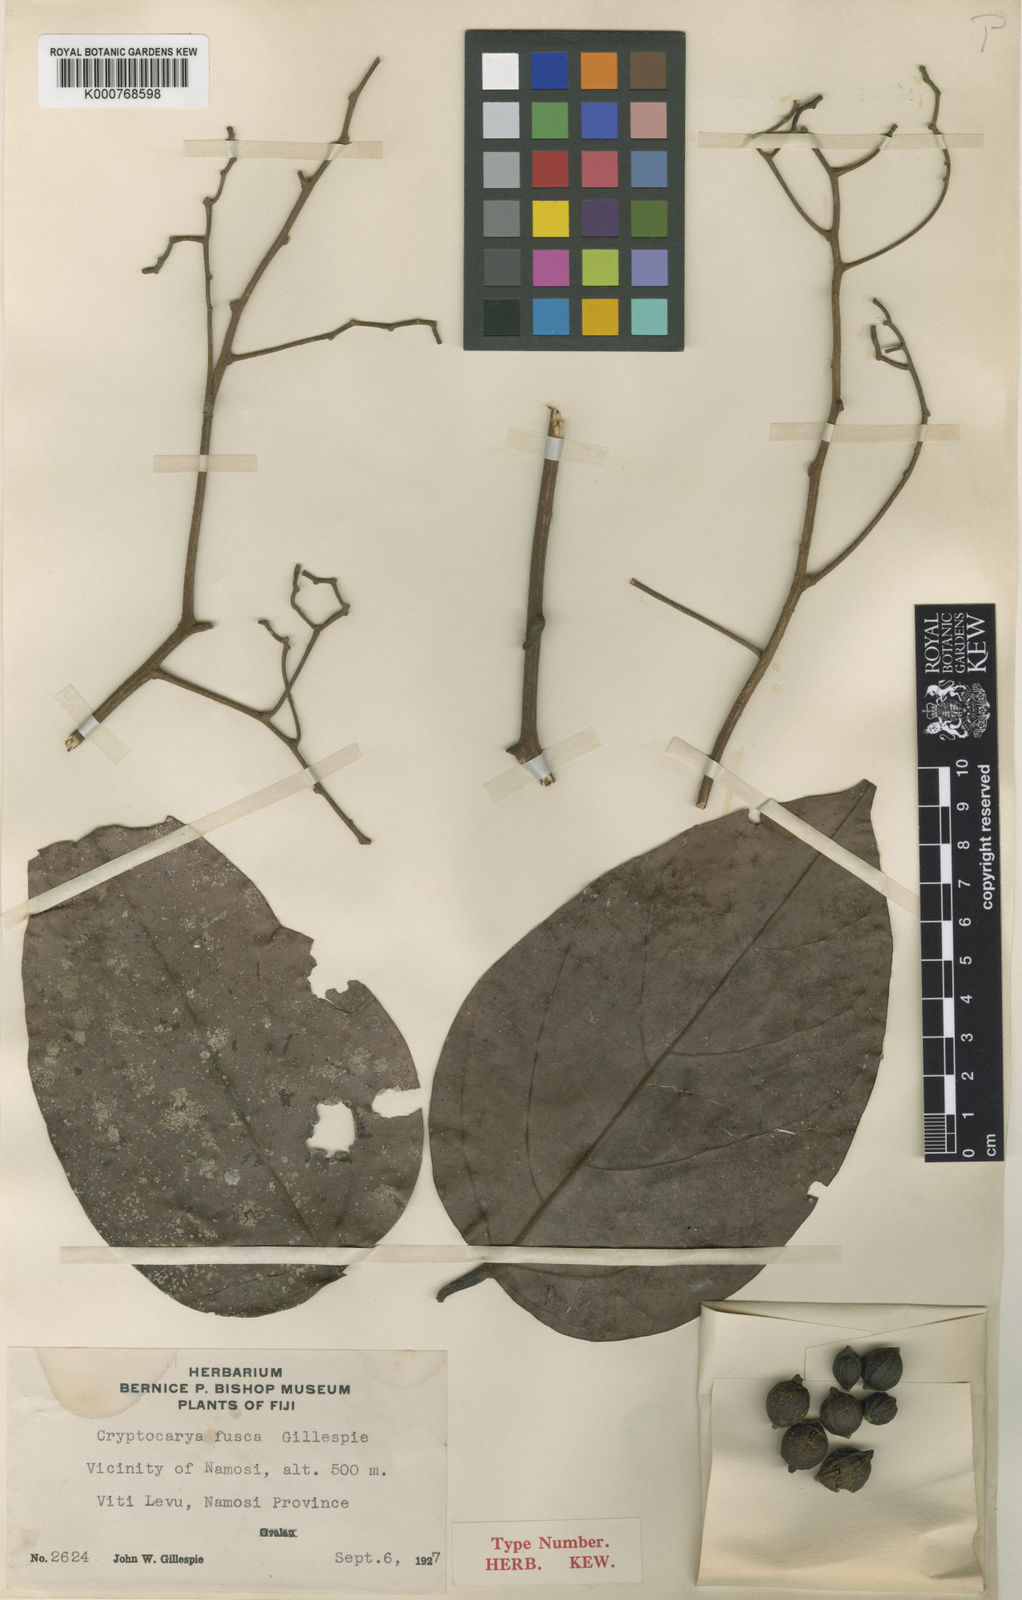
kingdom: Plantae
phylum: Tracheophyta
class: Magnoliopsida
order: Laurales
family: Lauraceae
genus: Cryptocarya
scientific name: Cryptocarya fusca
